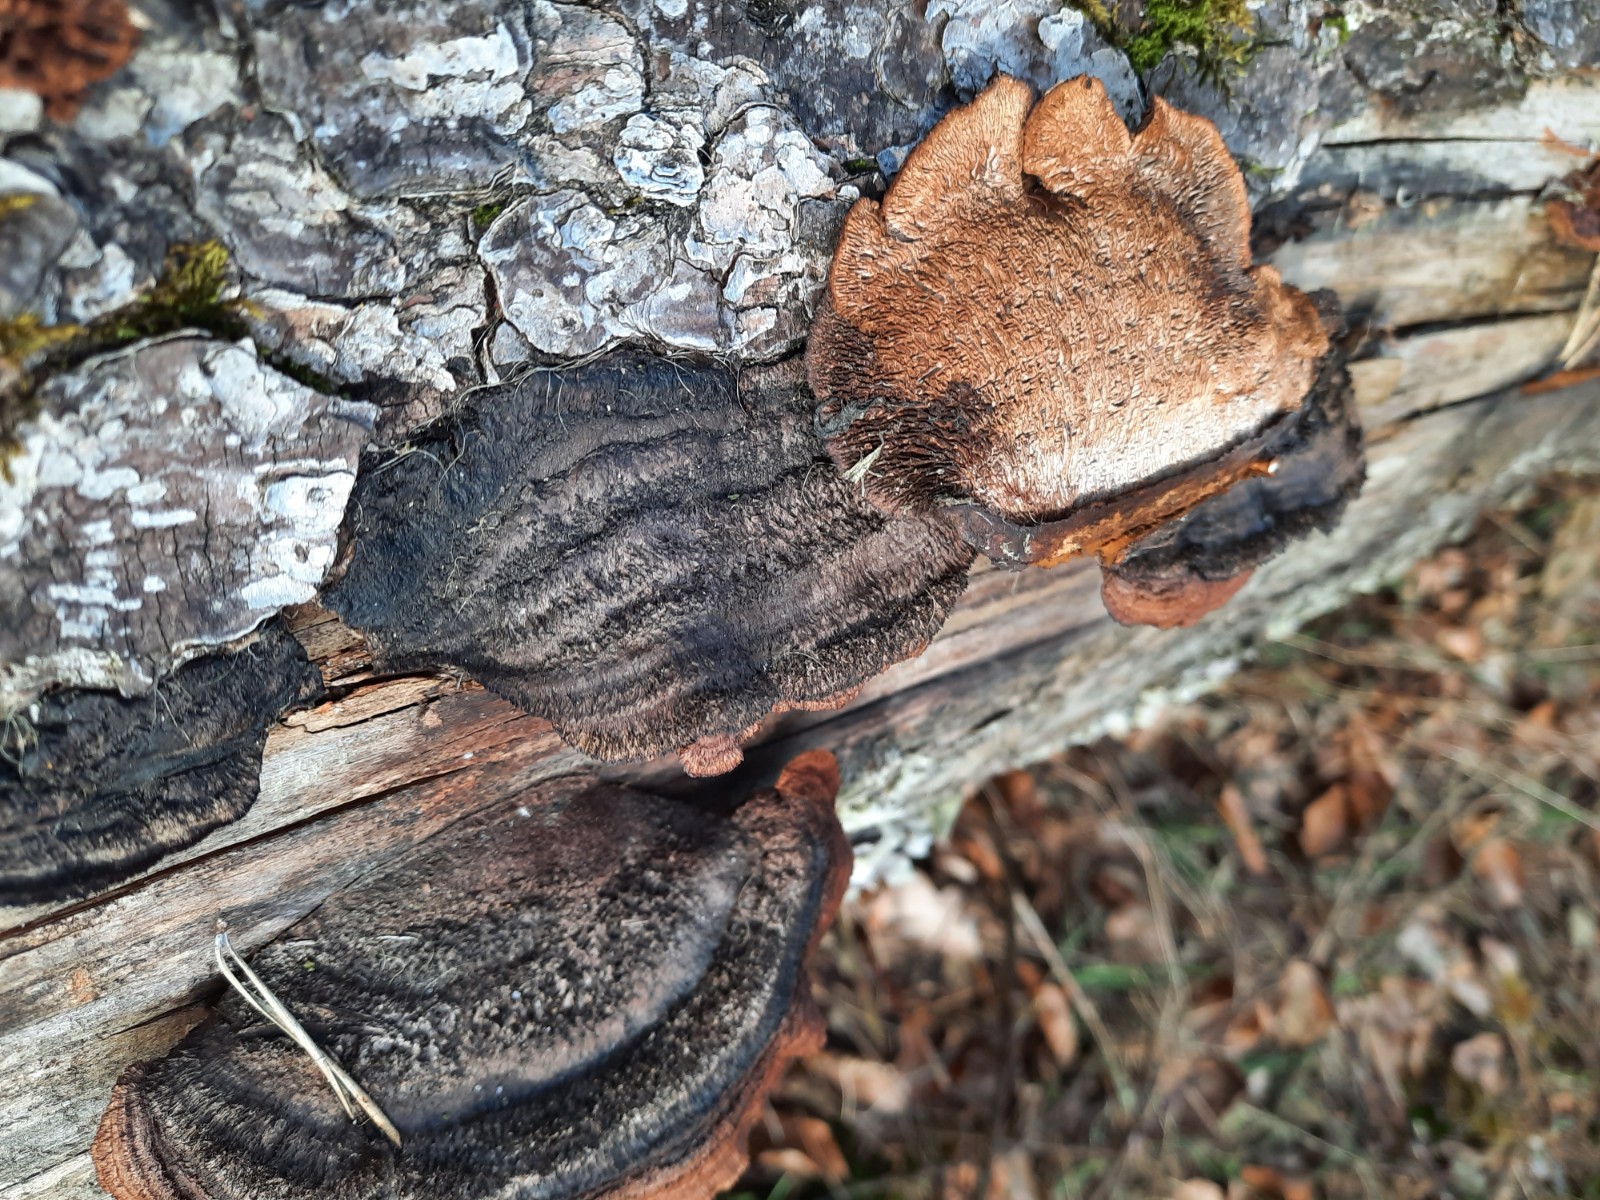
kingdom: Fungi
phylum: Basidiomycota
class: Agaricomycetes
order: Gloeophyllales
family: Gloeophyllaceae
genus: Gloeophyllum
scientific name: Gloeophyllum sepiarium
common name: fyrre-korkhat
